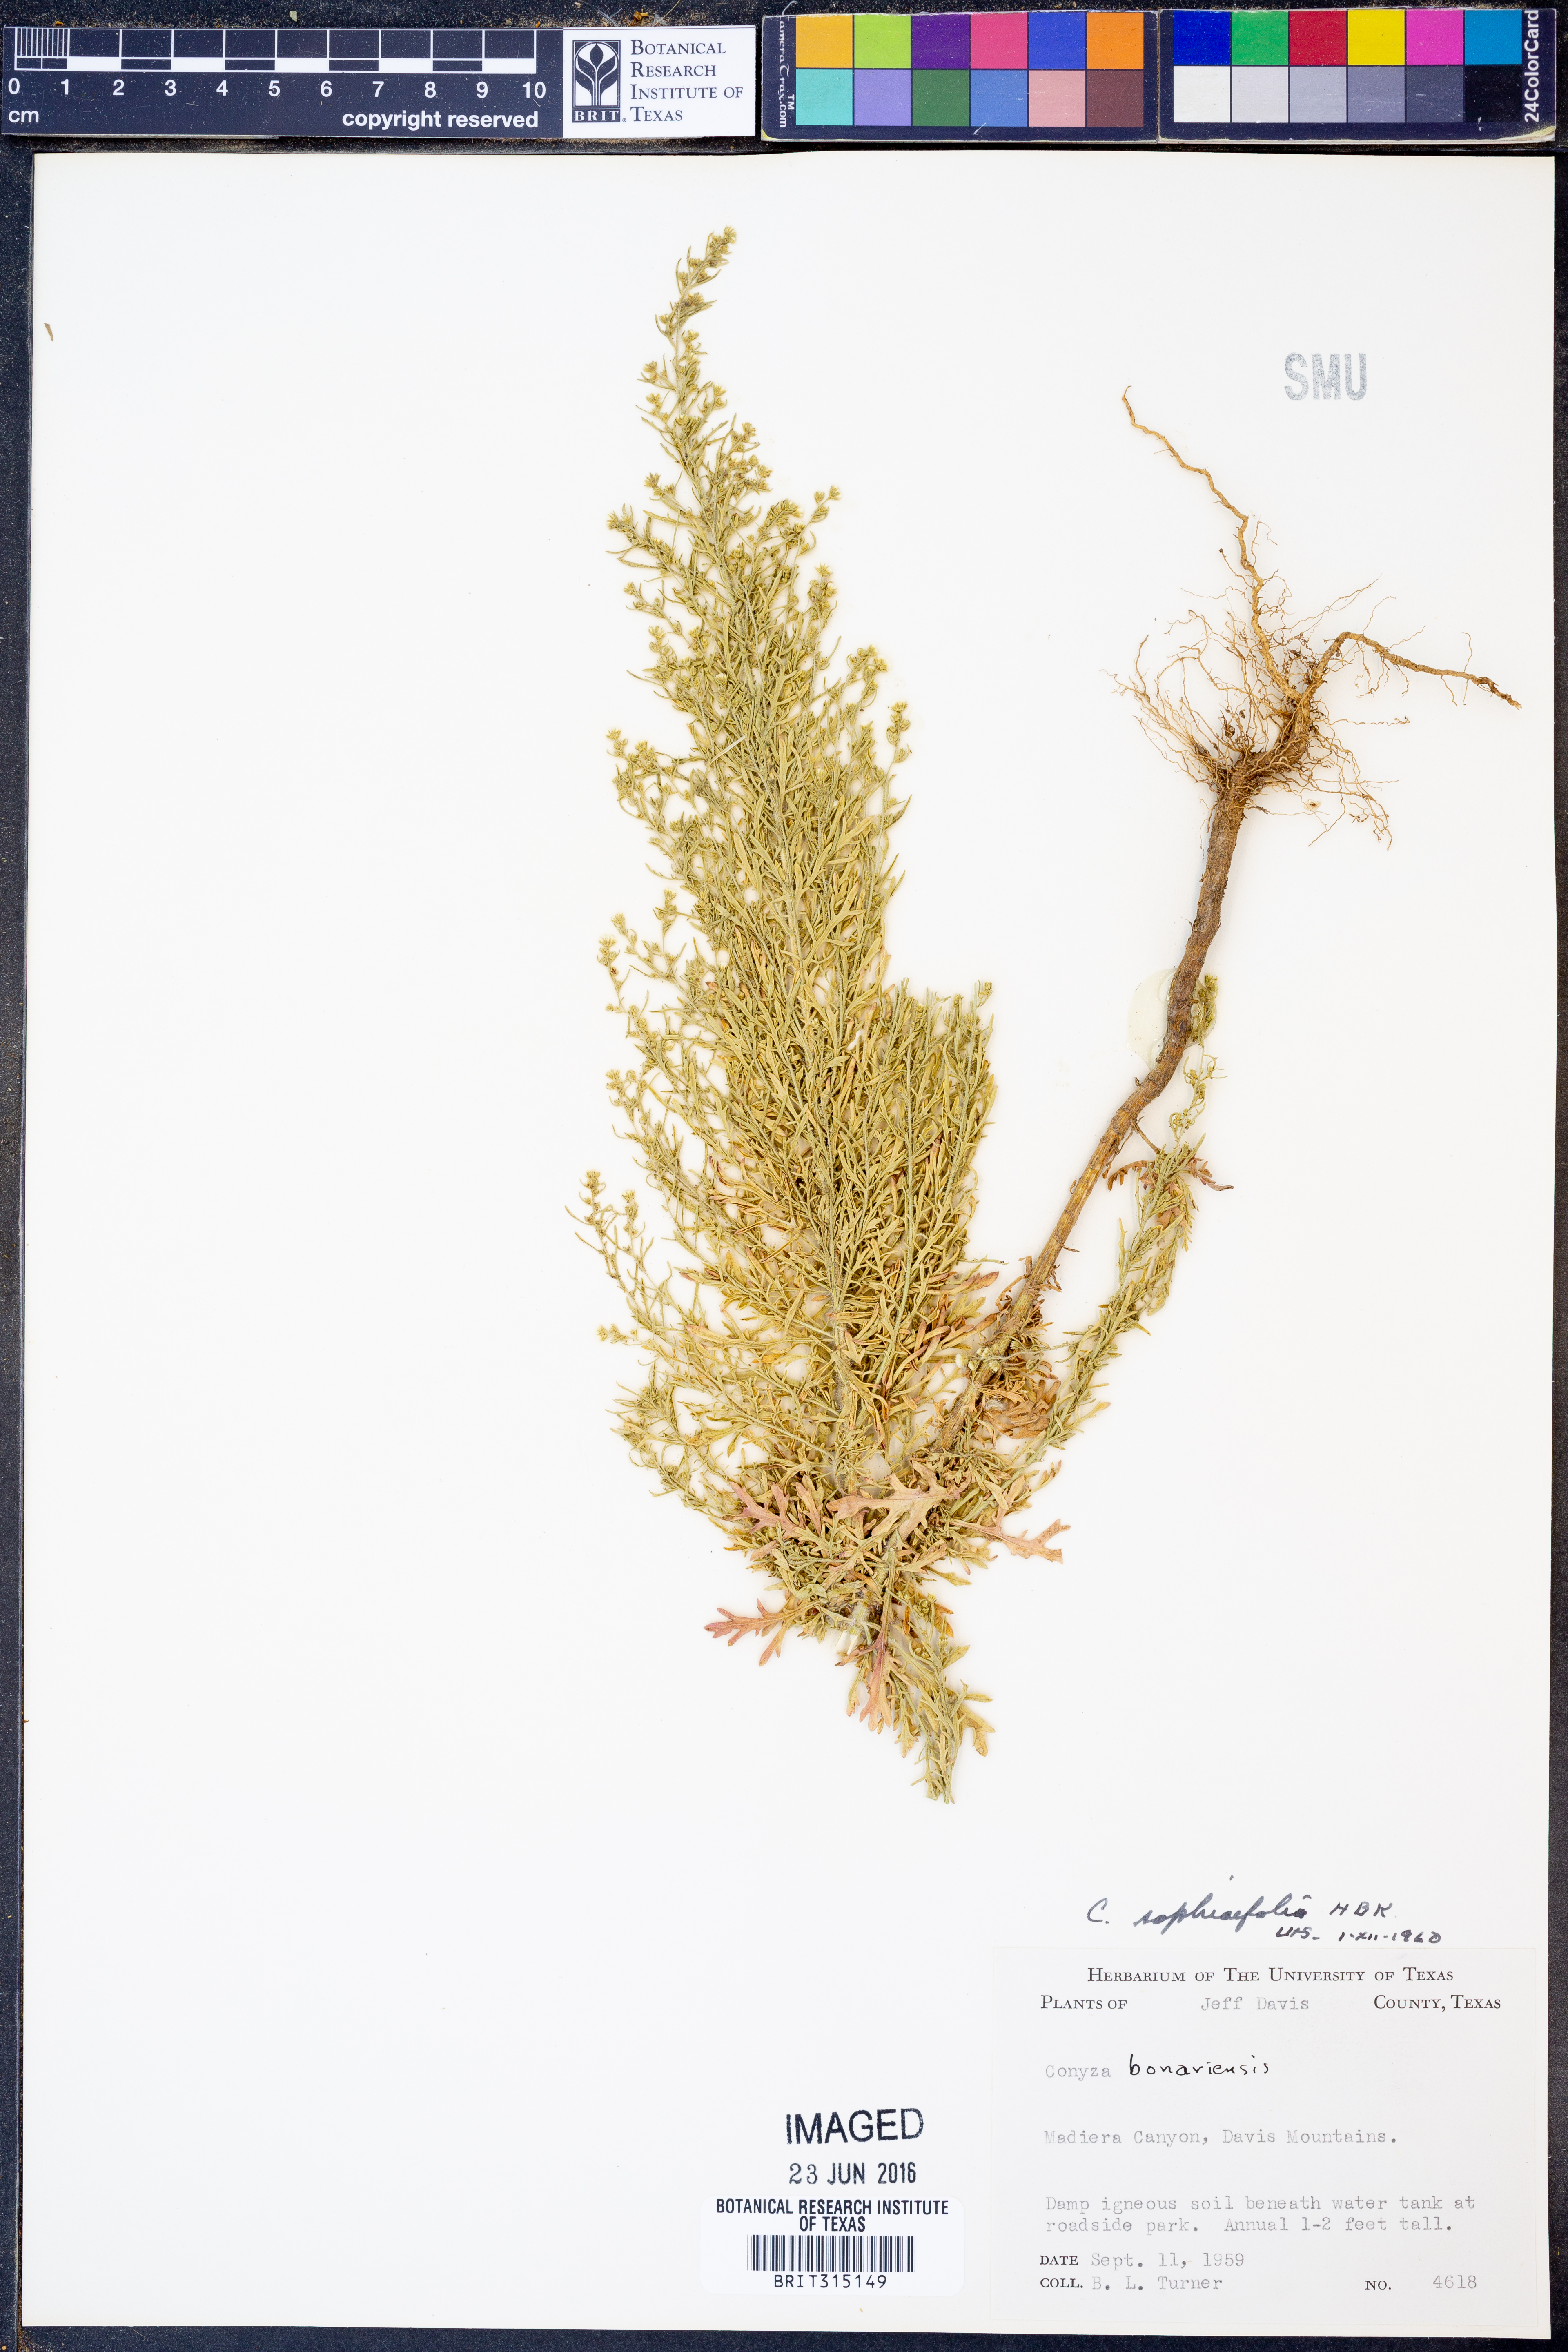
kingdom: Plantae
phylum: Tracheophyta
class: Magnoliopsida
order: Asterales
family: Asteraceae
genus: Laennecia
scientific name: Laennecia sophiifolia
